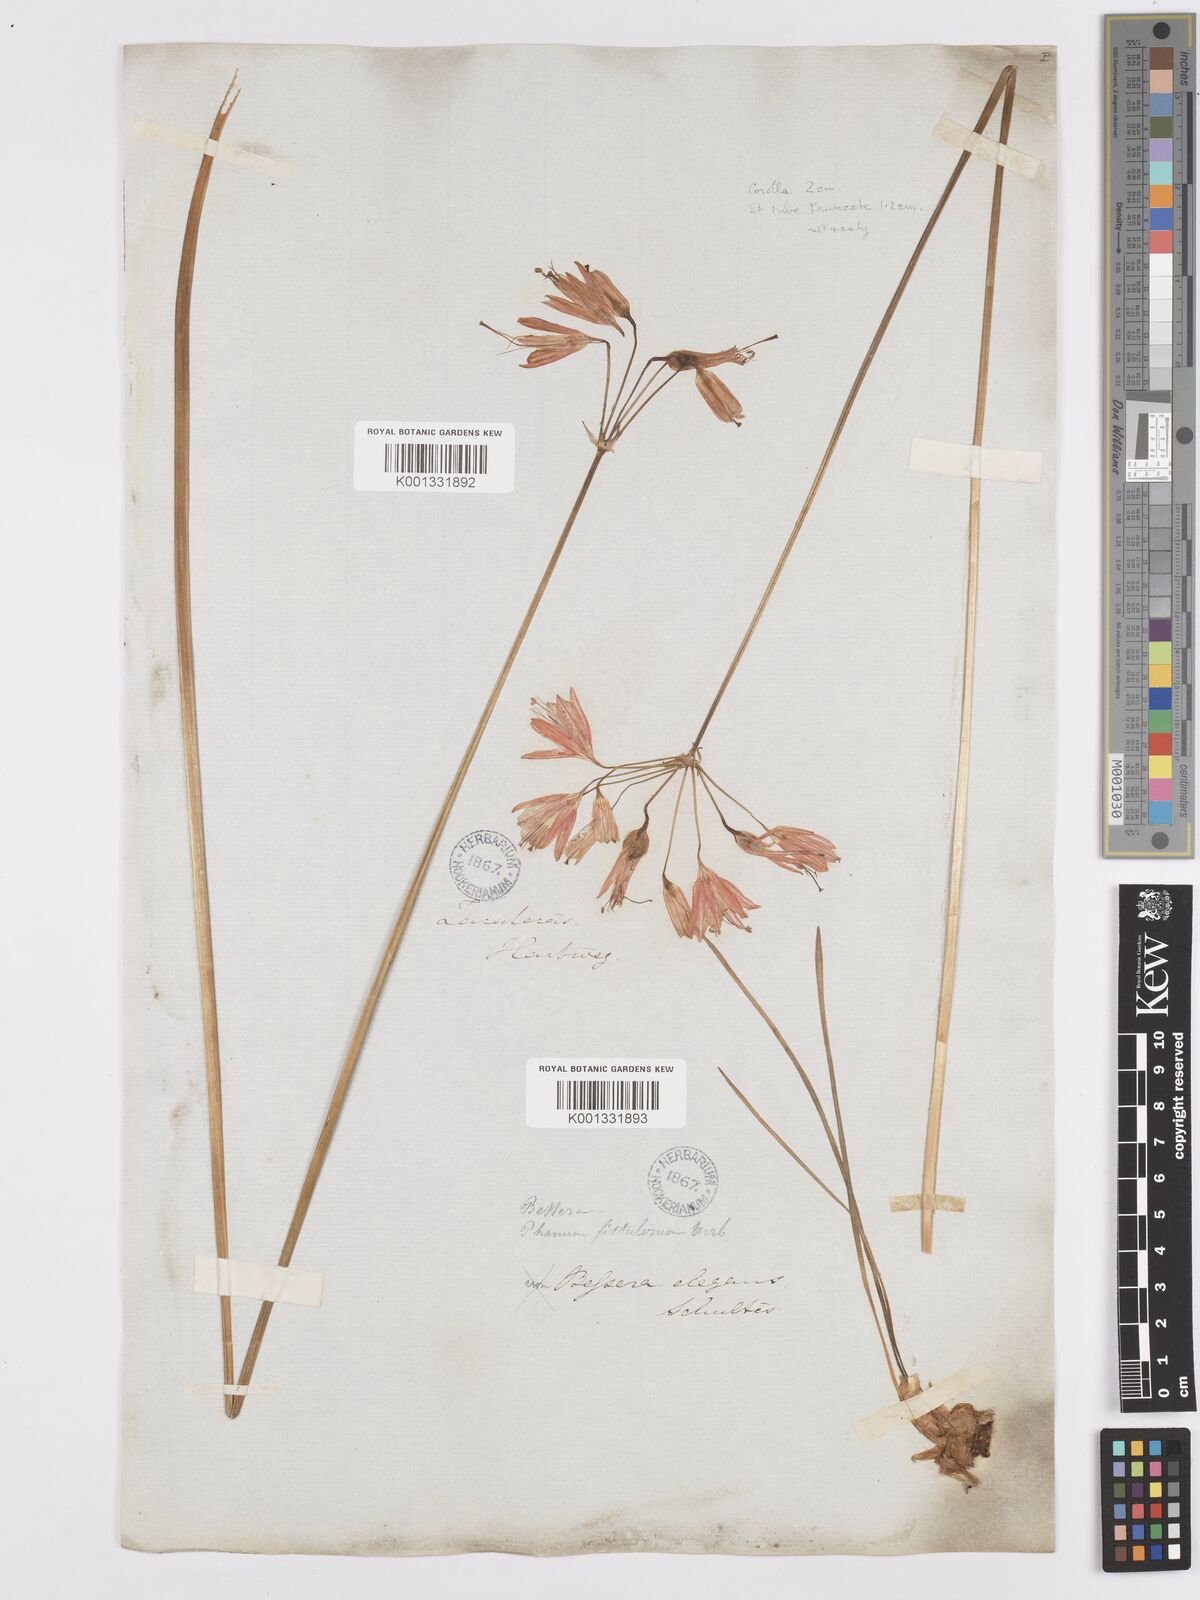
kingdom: Plantae
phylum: Tracheophyta
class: Liliopsida
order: Asparagales
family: Asparagaceae
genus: Bessera
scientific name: Bessera elegans
